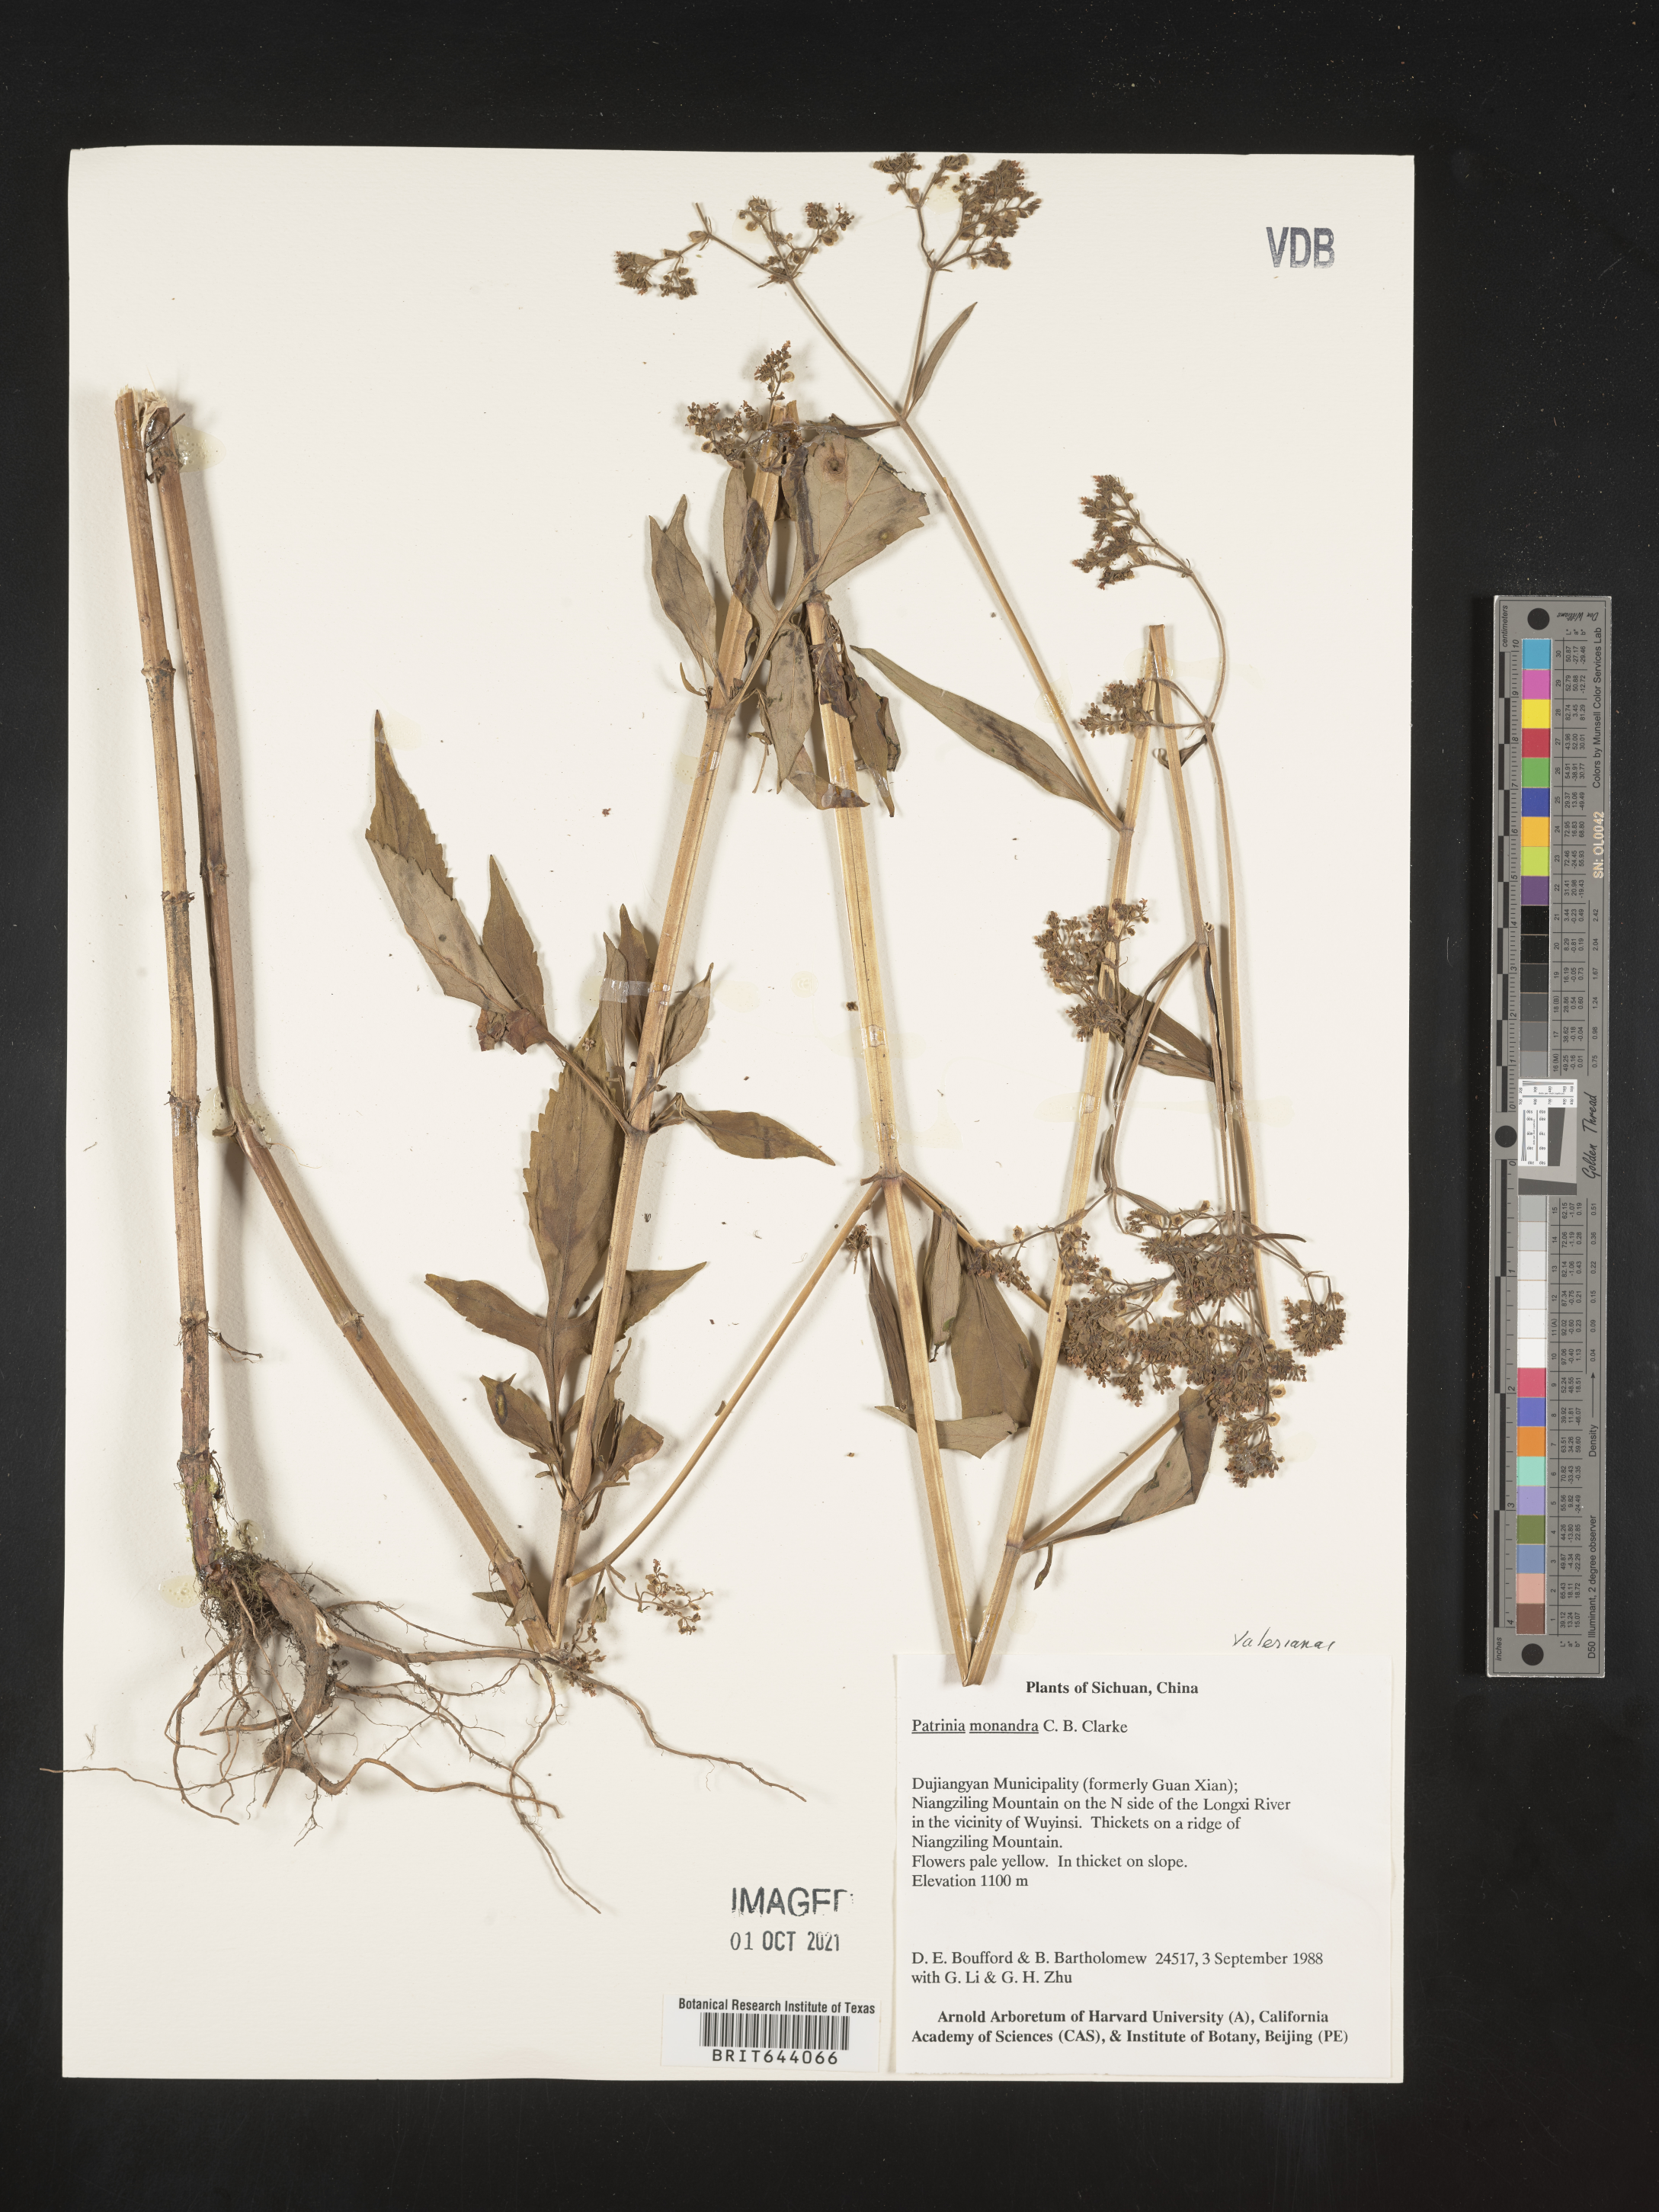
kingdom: Plantae
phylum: Tracheophyta
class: Magnoliopsida
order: Dipsacales
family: Caprifoliaceae
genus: Patrinia
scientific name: Patrinia monandra
